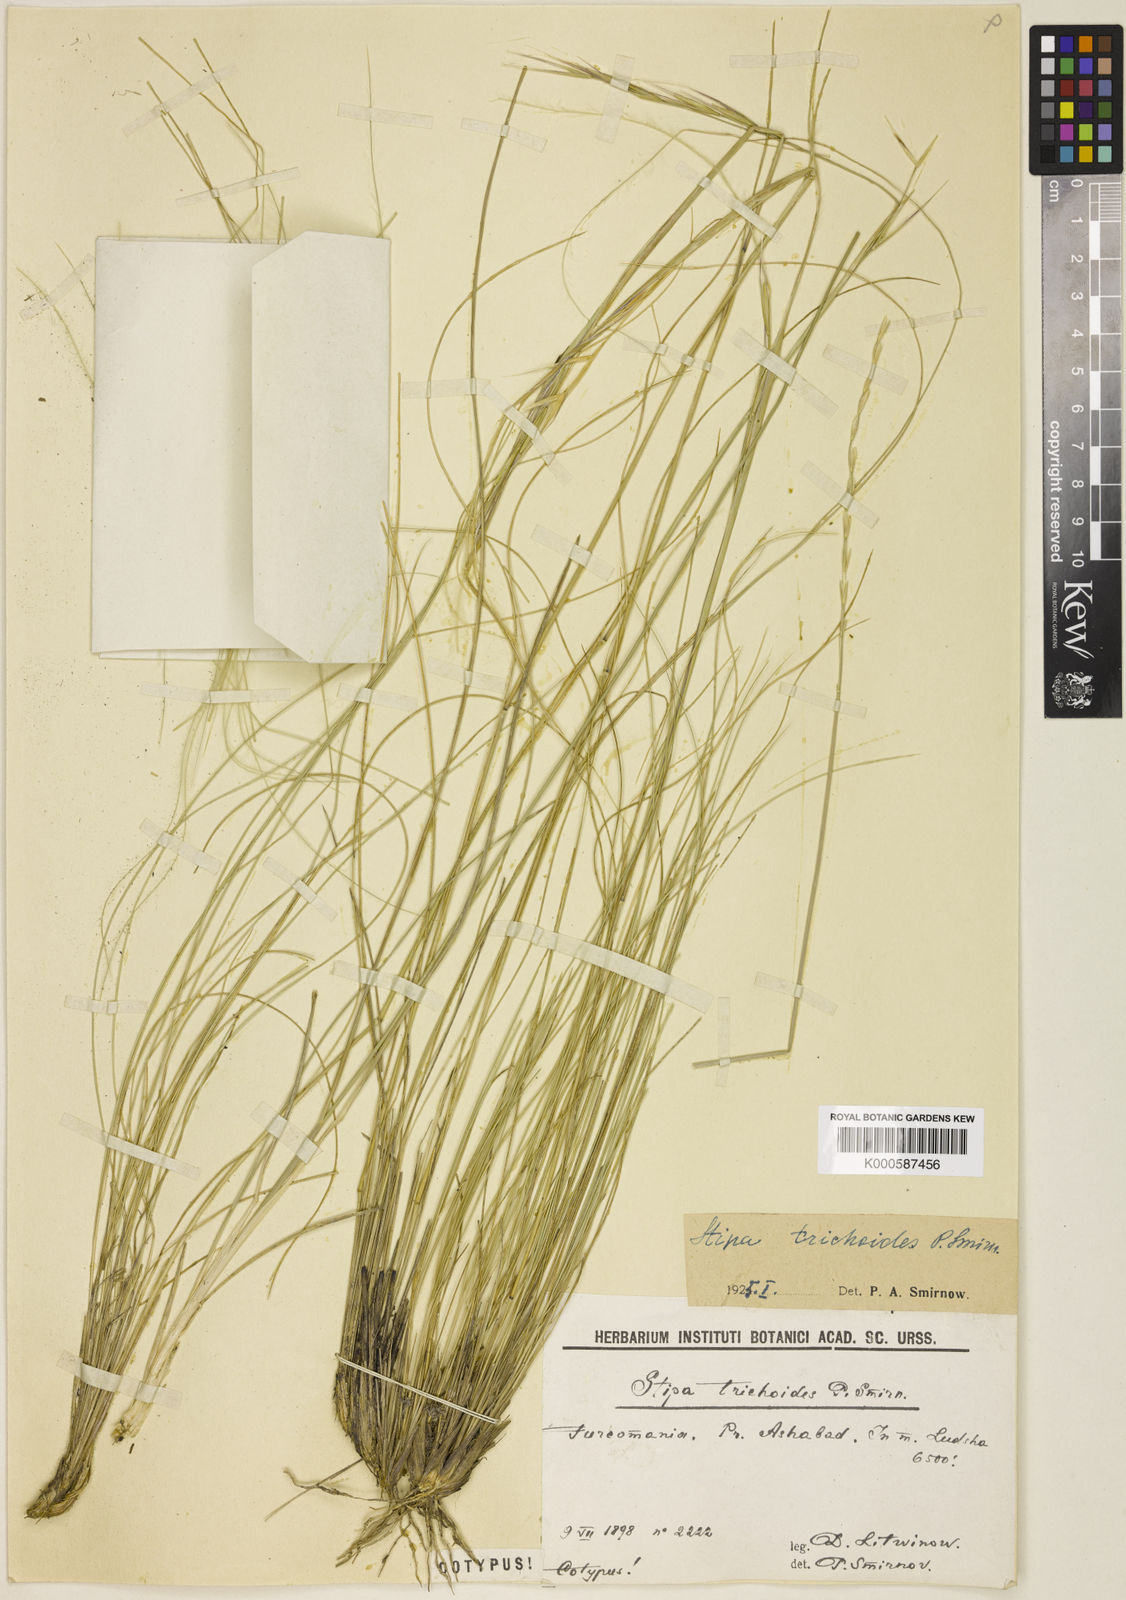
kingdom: Plantae
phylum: Tracheophyta
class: Liliopsida
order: Poales
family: Poaceae
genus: Stipa
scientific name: Stipa turkestanica
